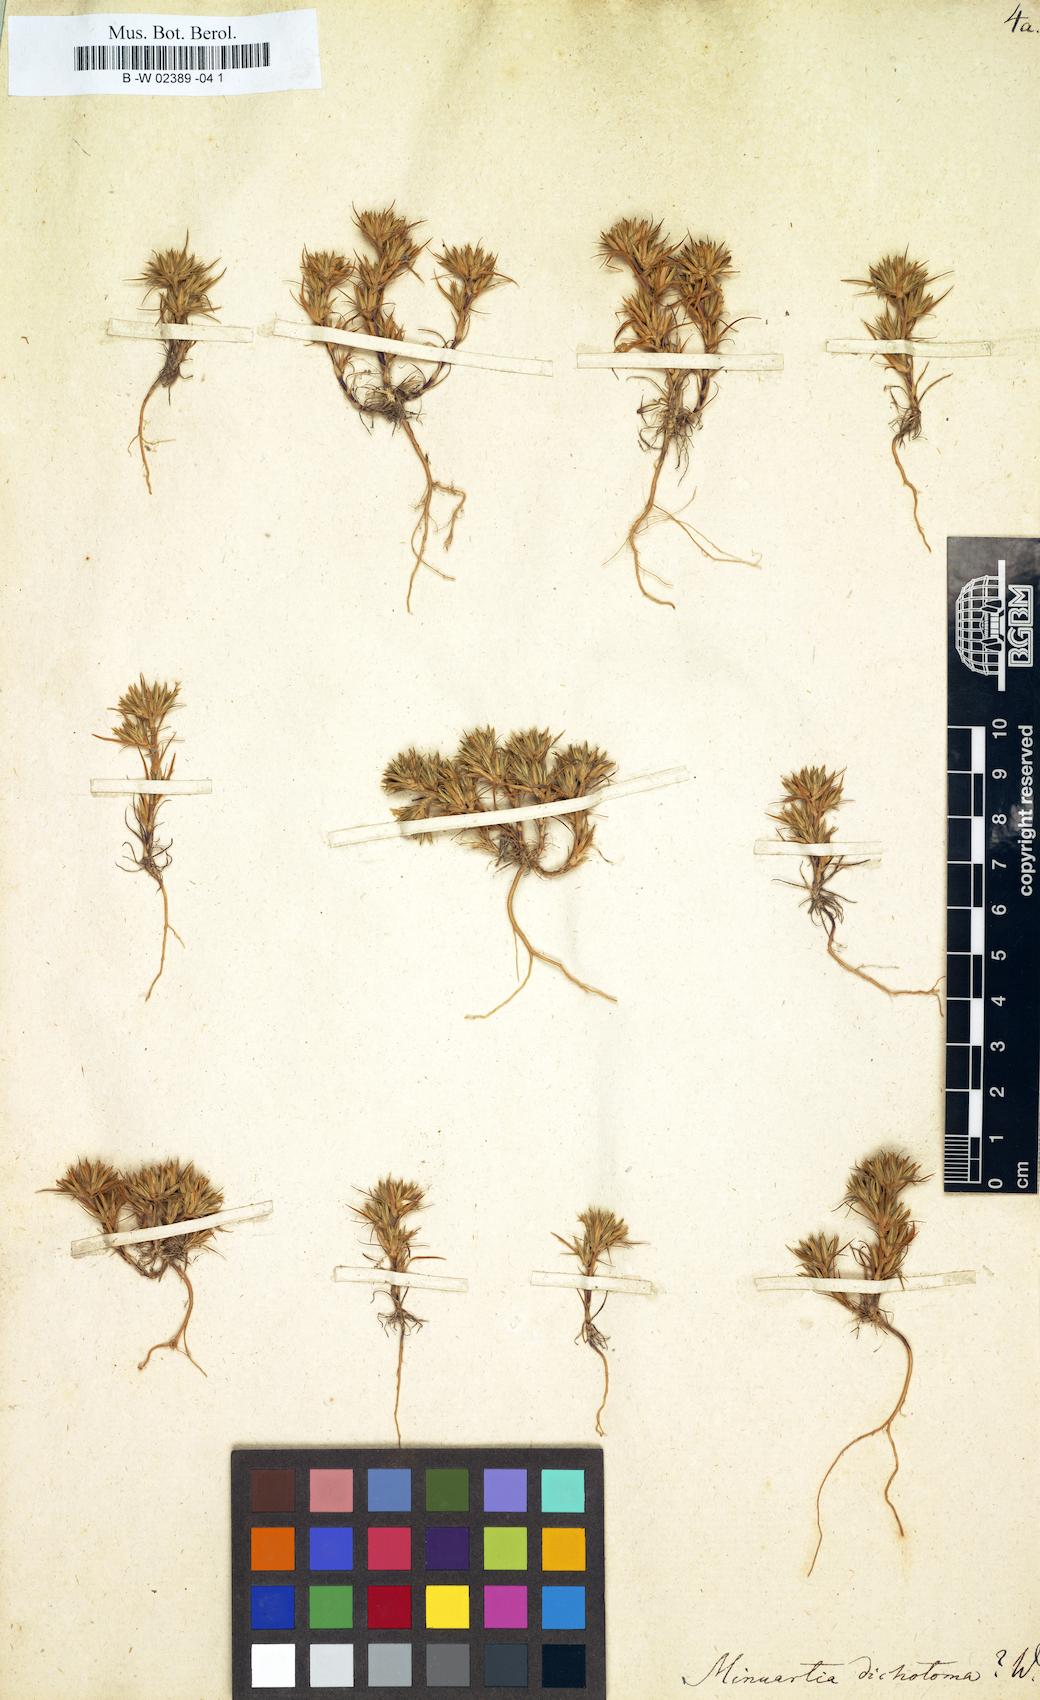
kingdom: Plantae
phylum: Tracheophyta
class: Magnoliopsida
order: Caryophyllales
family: Caryophyllaceae
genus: Minuartia
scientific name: Minuartia dichotoma
